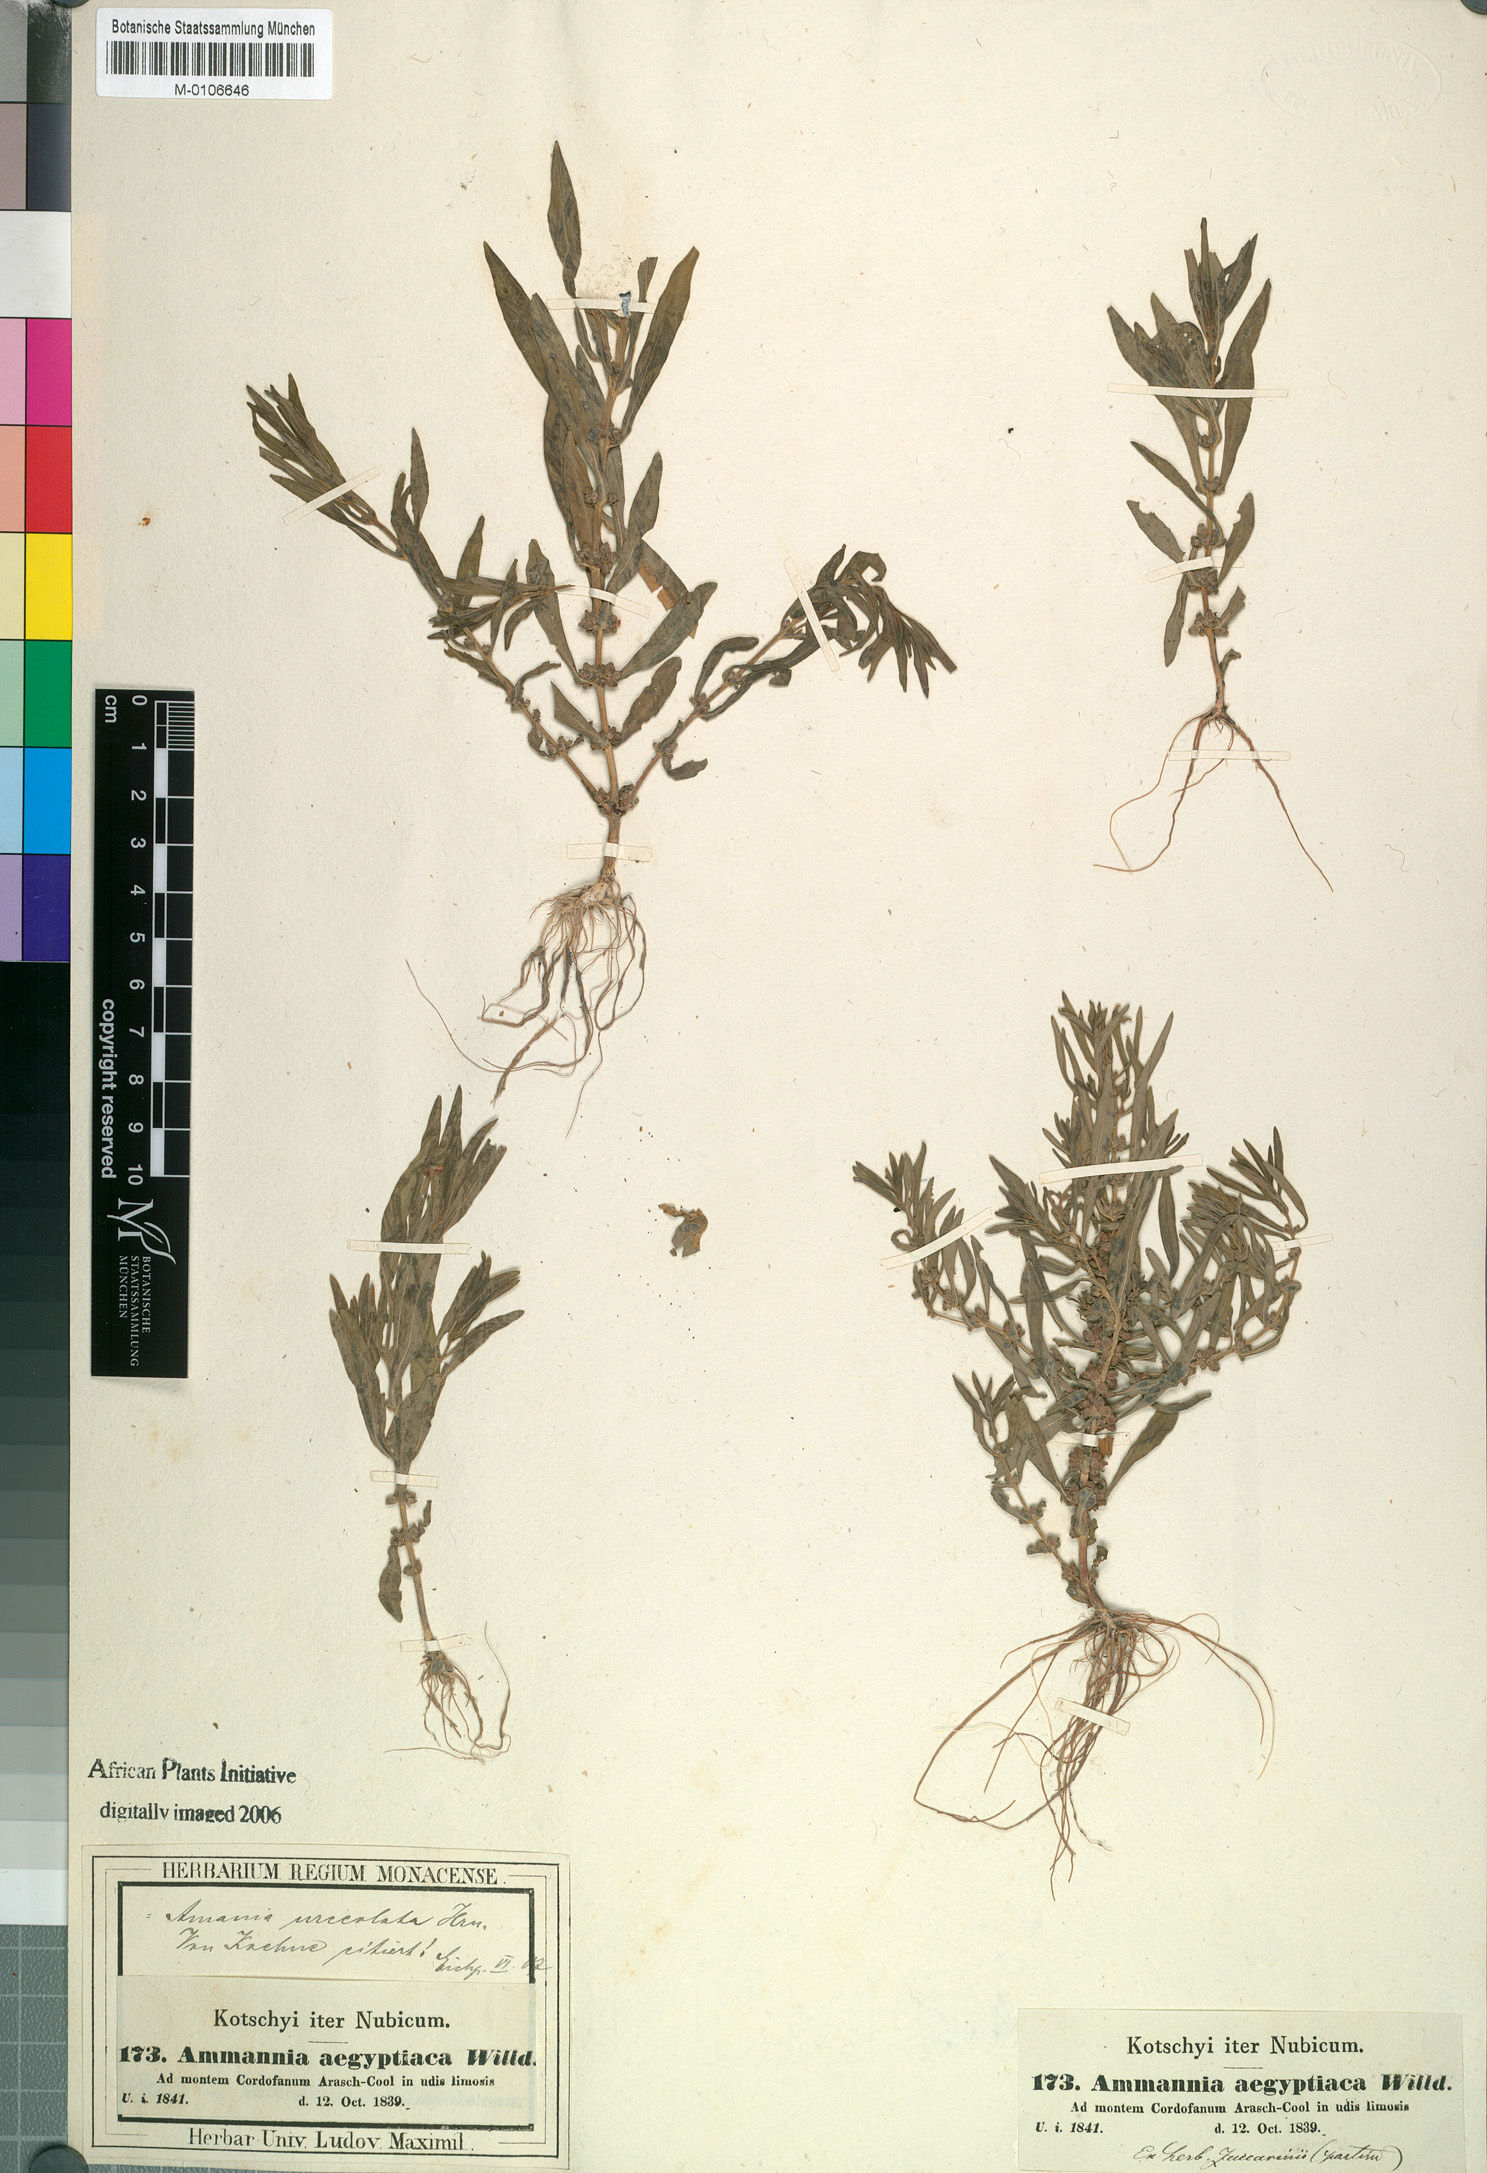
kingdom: Plantae
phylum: Tracheophyta
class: Magnoliopsida
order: Myrtales
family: Lythraceae
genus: Ammannia
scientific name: Ammannia urceolata
